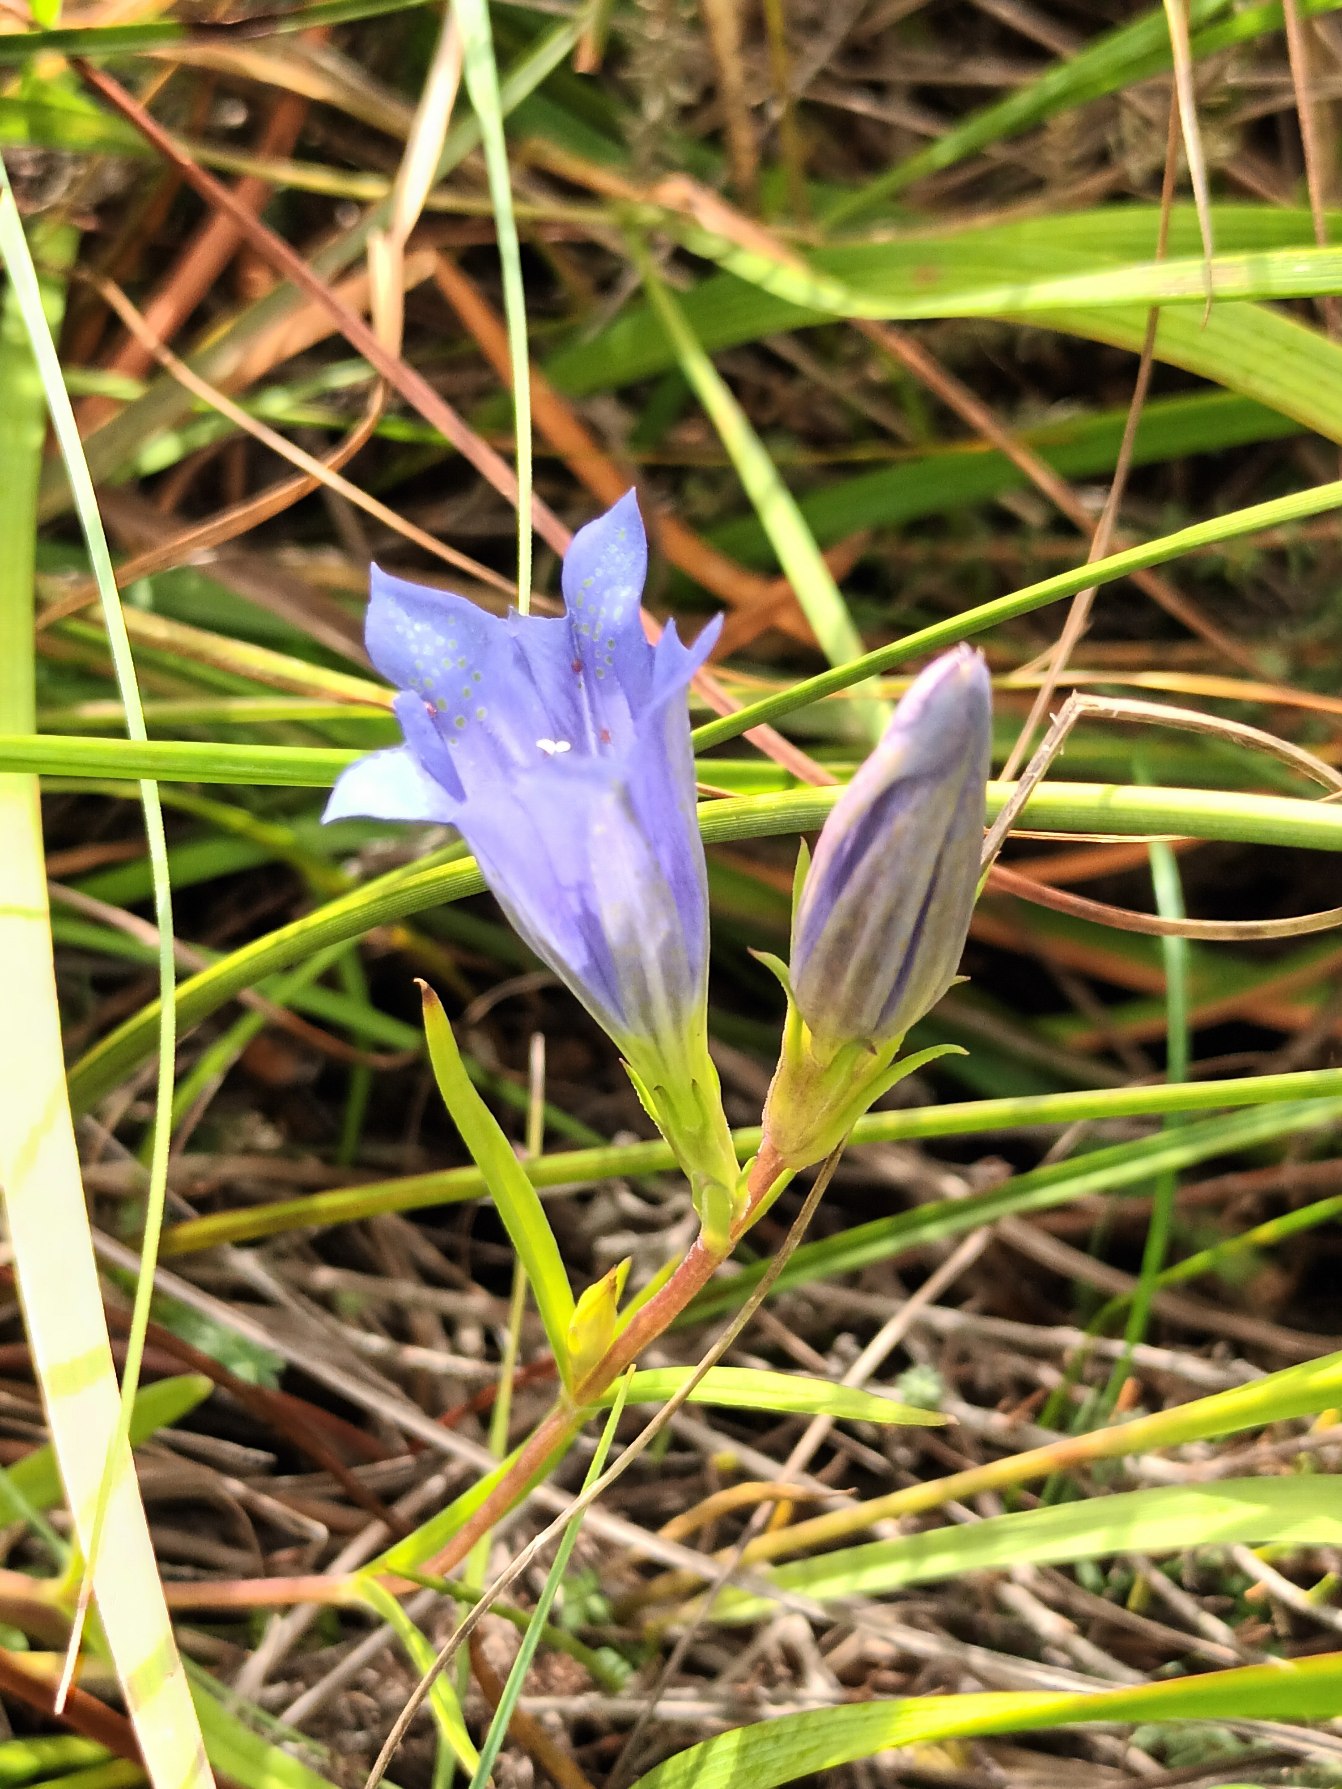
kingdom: Plantae
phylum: Tracheophyta
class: Magnoliopsida
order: Gentianales
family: Gentianaceae
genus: Gentiana
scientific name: Gentiana pneumonanthe
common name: Klokke-ensian
